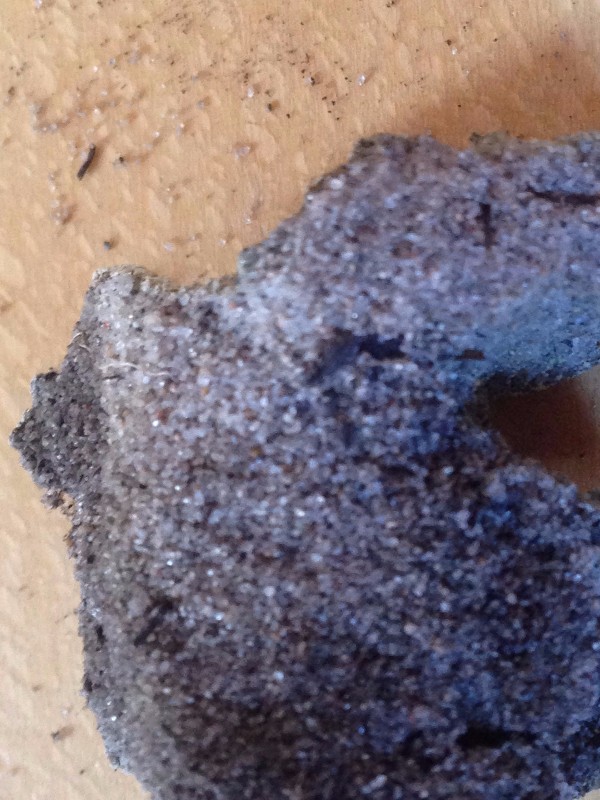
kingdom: Fungi
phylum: Ascomycota
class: Lecanoromycetes
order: Baeomycetales
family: Trapeliaceae
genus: Trapeliopsis
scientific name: Trapeliopsis granulosa
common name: forskelligfarvet skivelav
